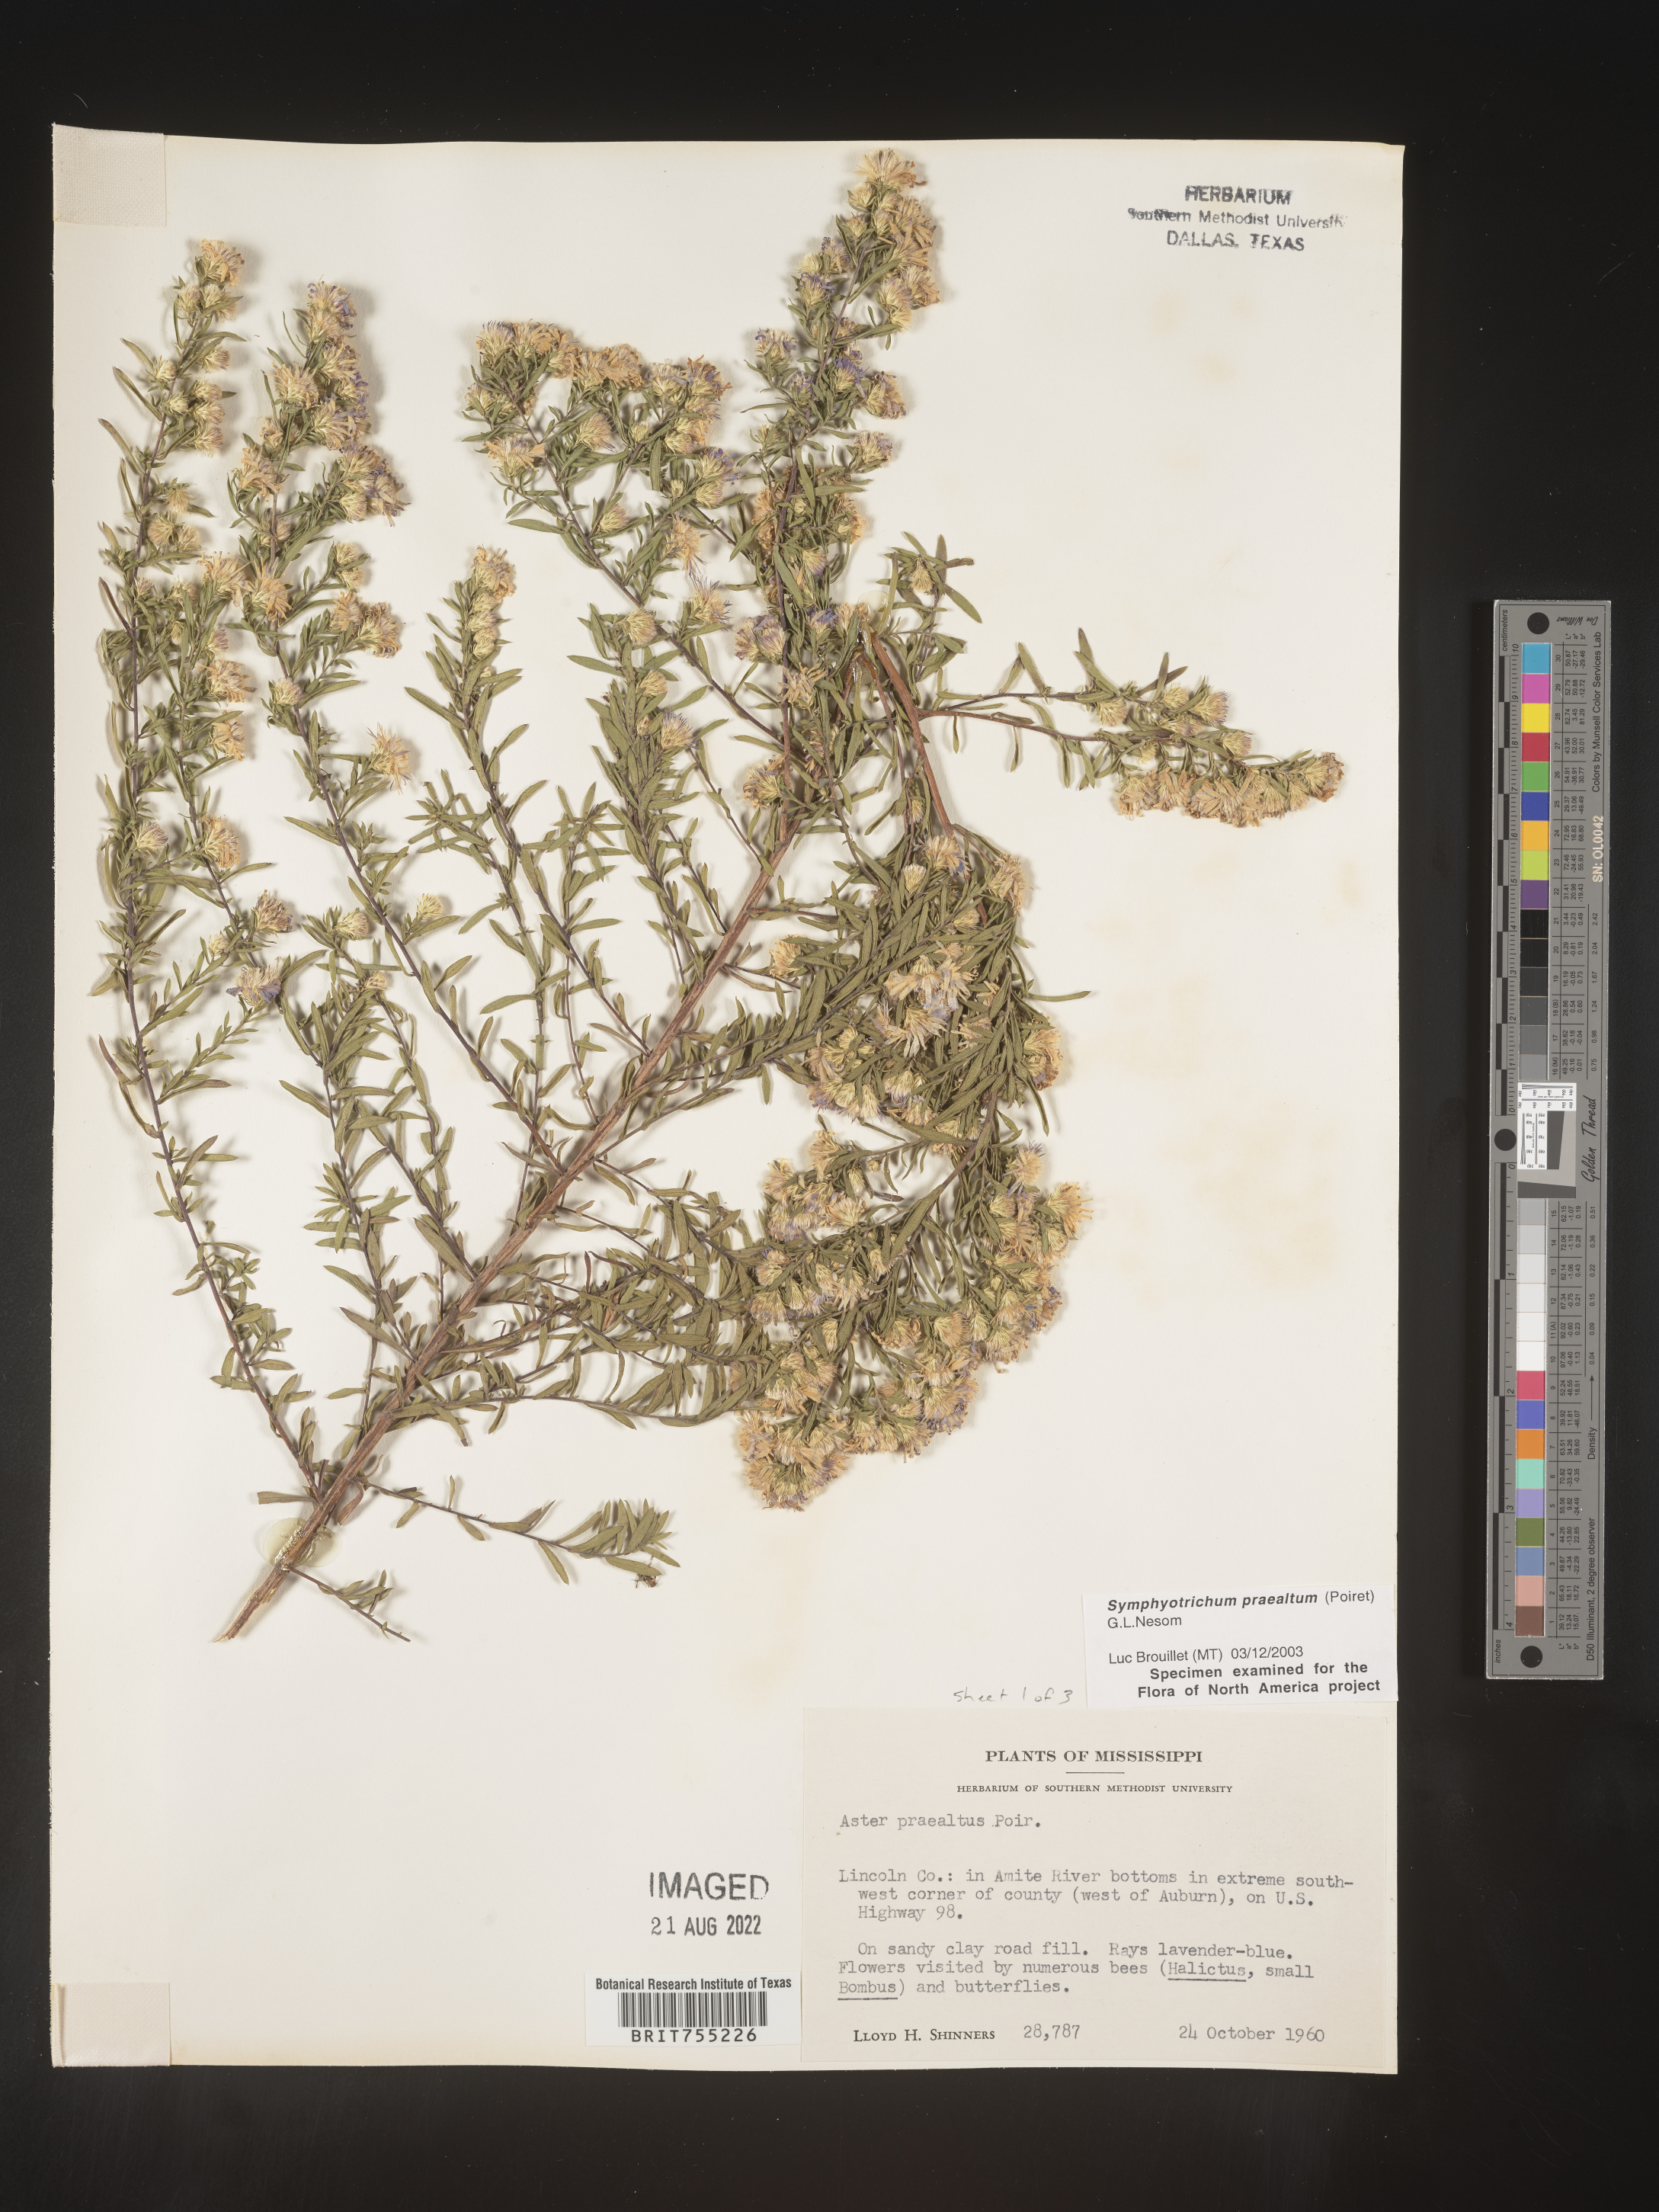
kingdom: Plantae
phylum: Tracheophyta
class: Magnoliopsida
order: Asterales
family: Asteraceae
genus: Symphyotrichum
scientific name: Symphyotrichum praealtum
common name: Willow aster
